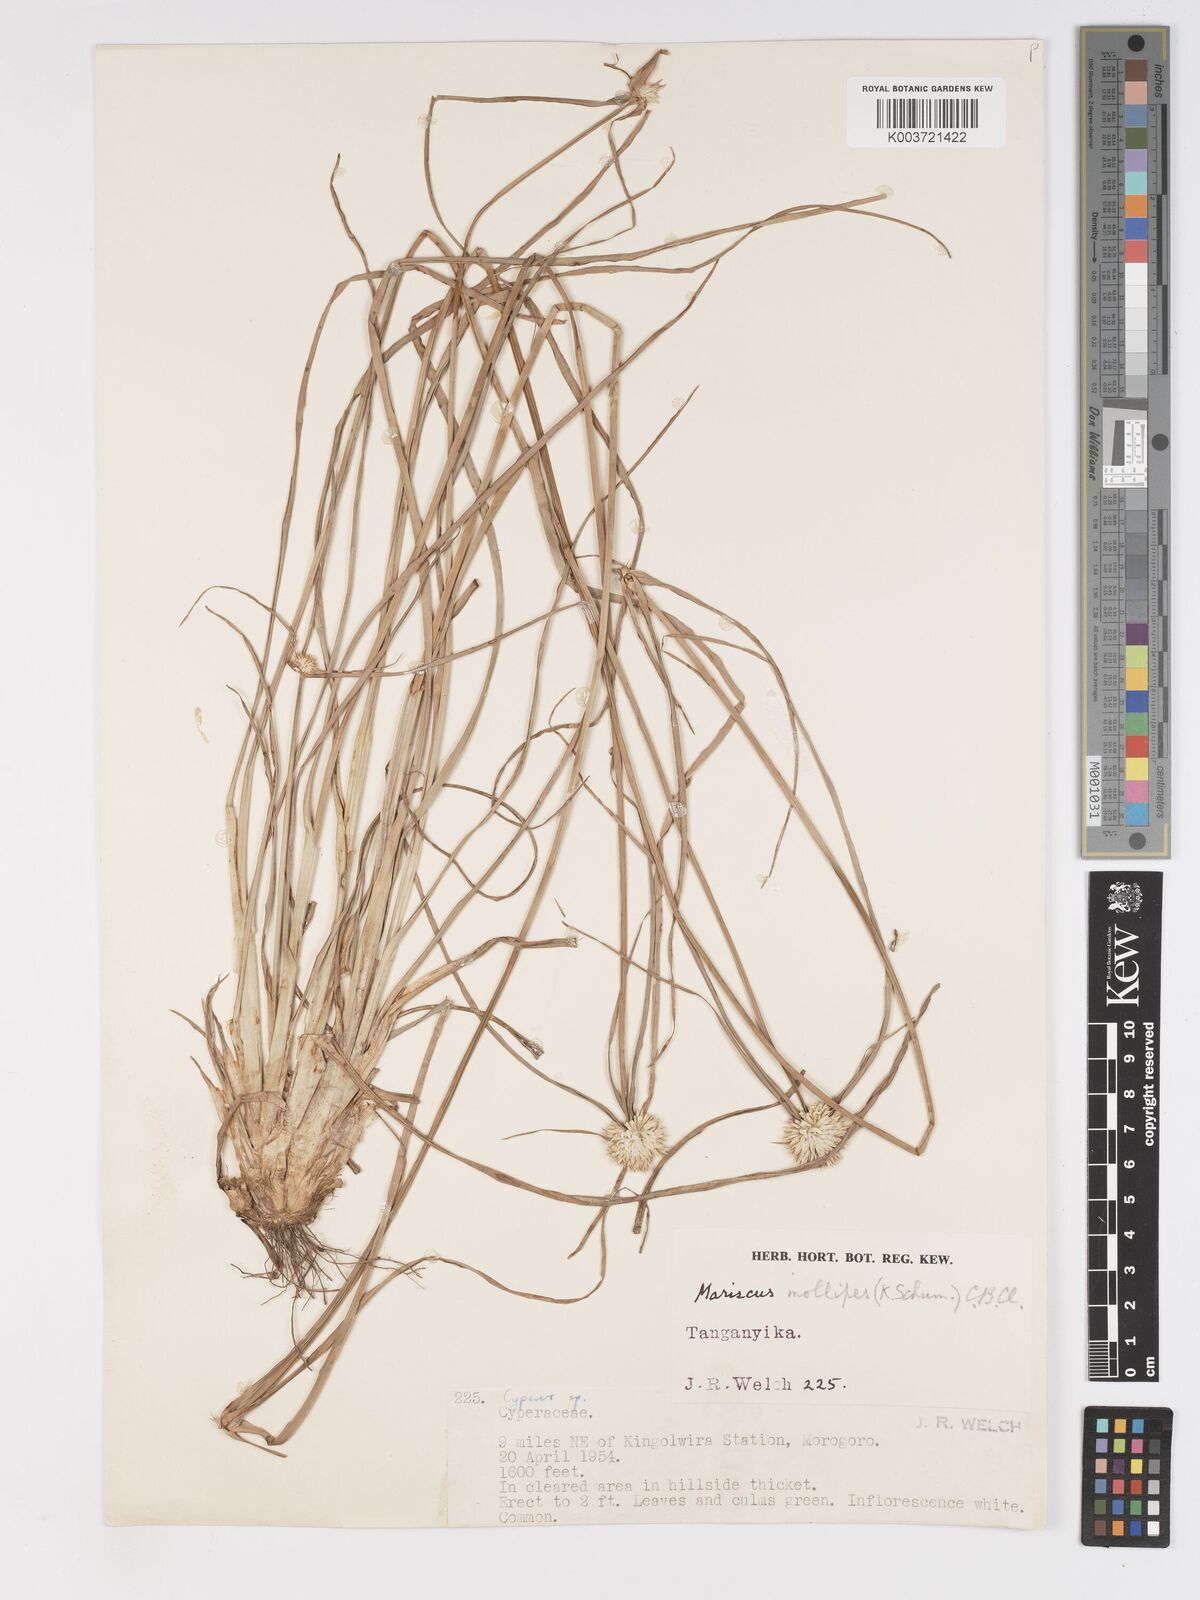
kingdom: Plantae
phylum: Tracheophyta
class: Liliopsida
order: Poales
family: Cyperaceae
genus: Cyperus
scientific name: Cyperus mollipes
